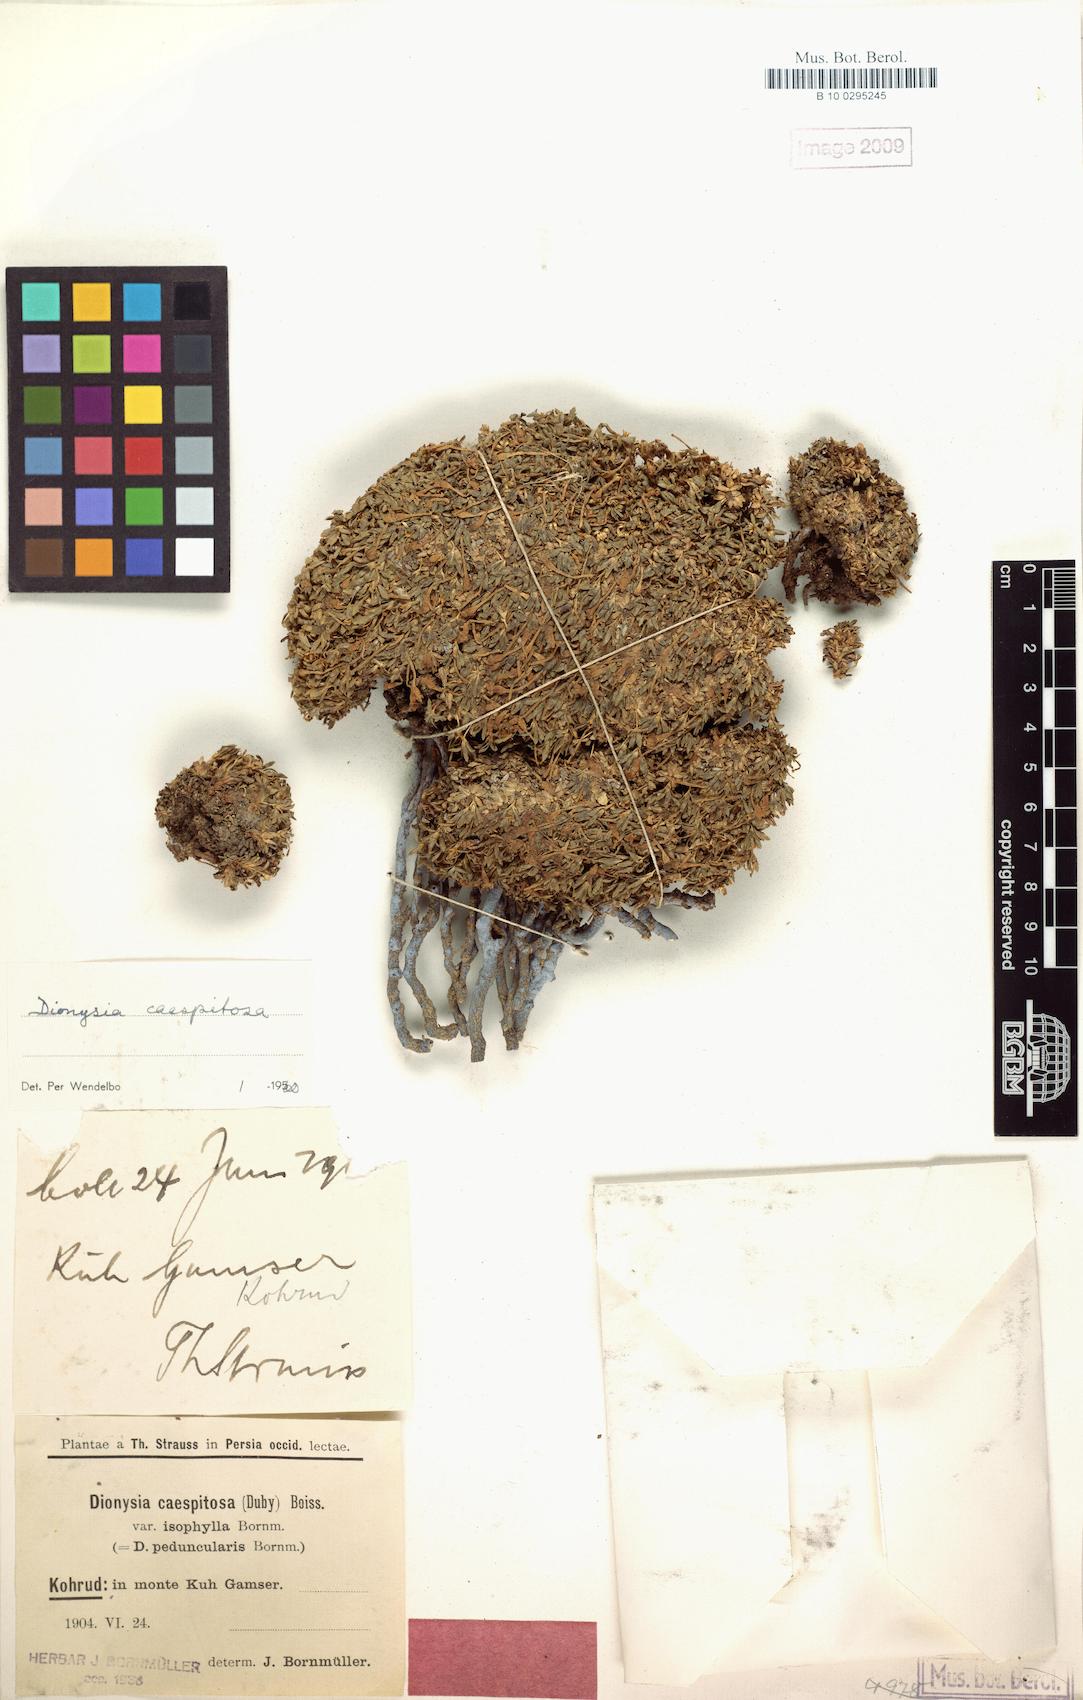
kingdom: Plantae
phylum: Tracheophyta
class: Magnoliopsida
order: Ericales
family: Primulaceae
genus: Dionysia
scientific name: Dionysia caespitosa
